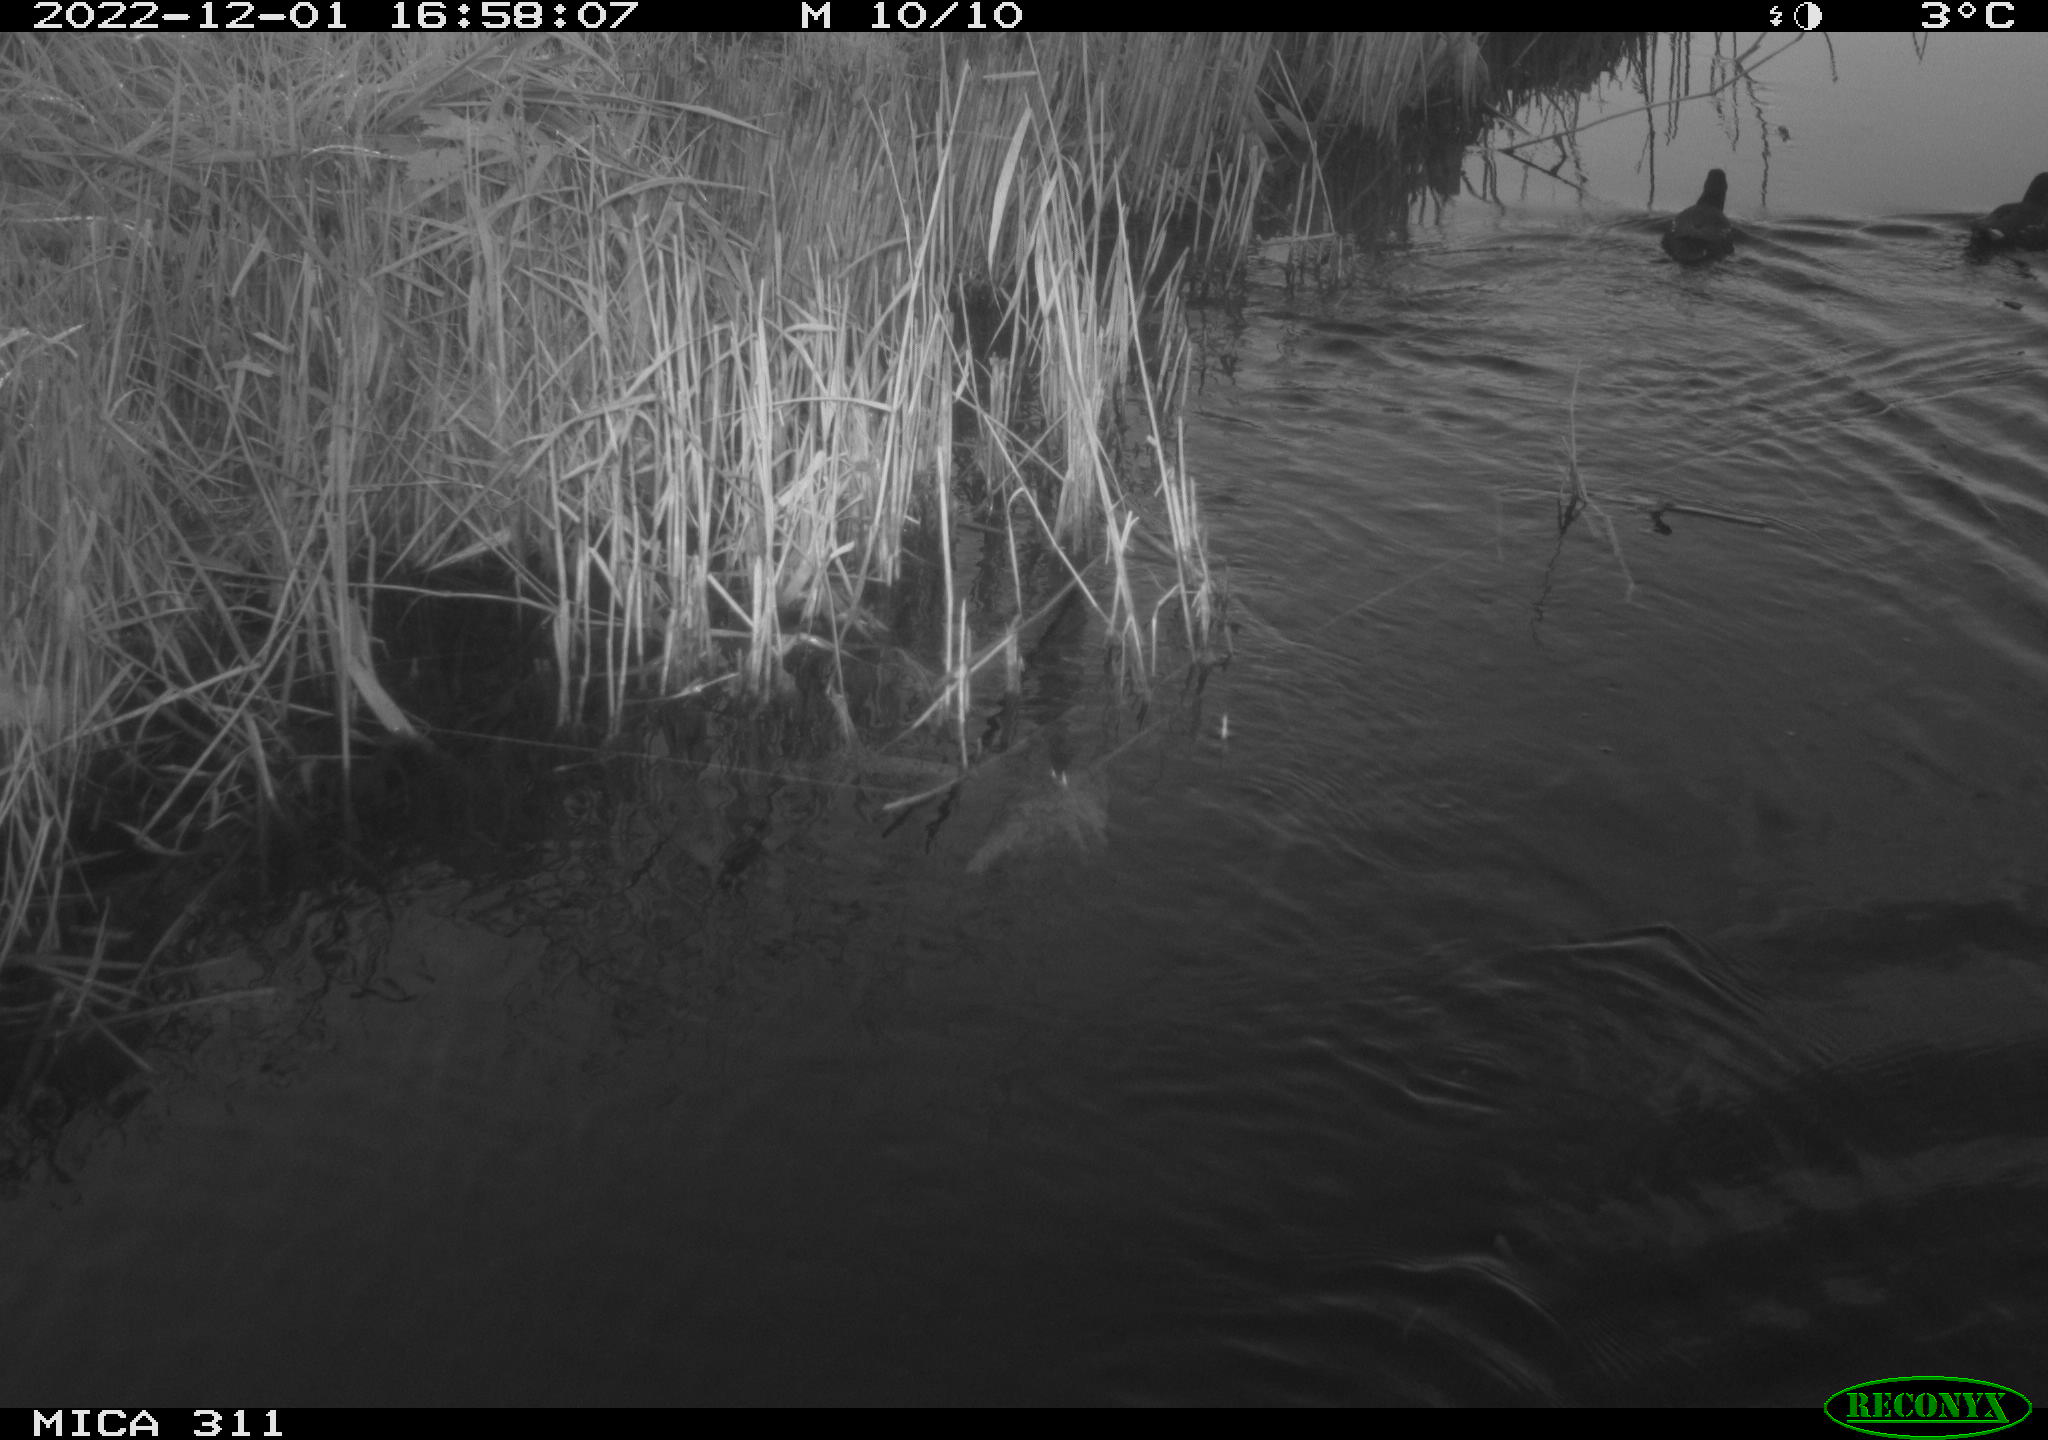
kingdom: Animalia
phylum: Chordata
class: Aves
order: Gruiformes
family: Rallidae
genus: Gallinula
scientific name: Gallinula chloropus
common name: Common moorhen
